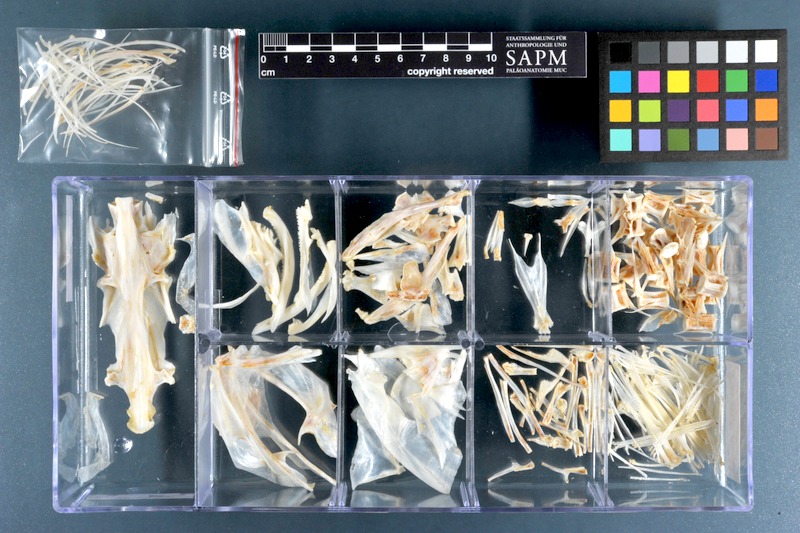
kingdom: Animalia
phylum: Chordata
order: Scorpaeniformes
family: Platycephalidae
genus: Platycephalus
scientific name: Platycephalus indicus
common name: Bartail flathead
